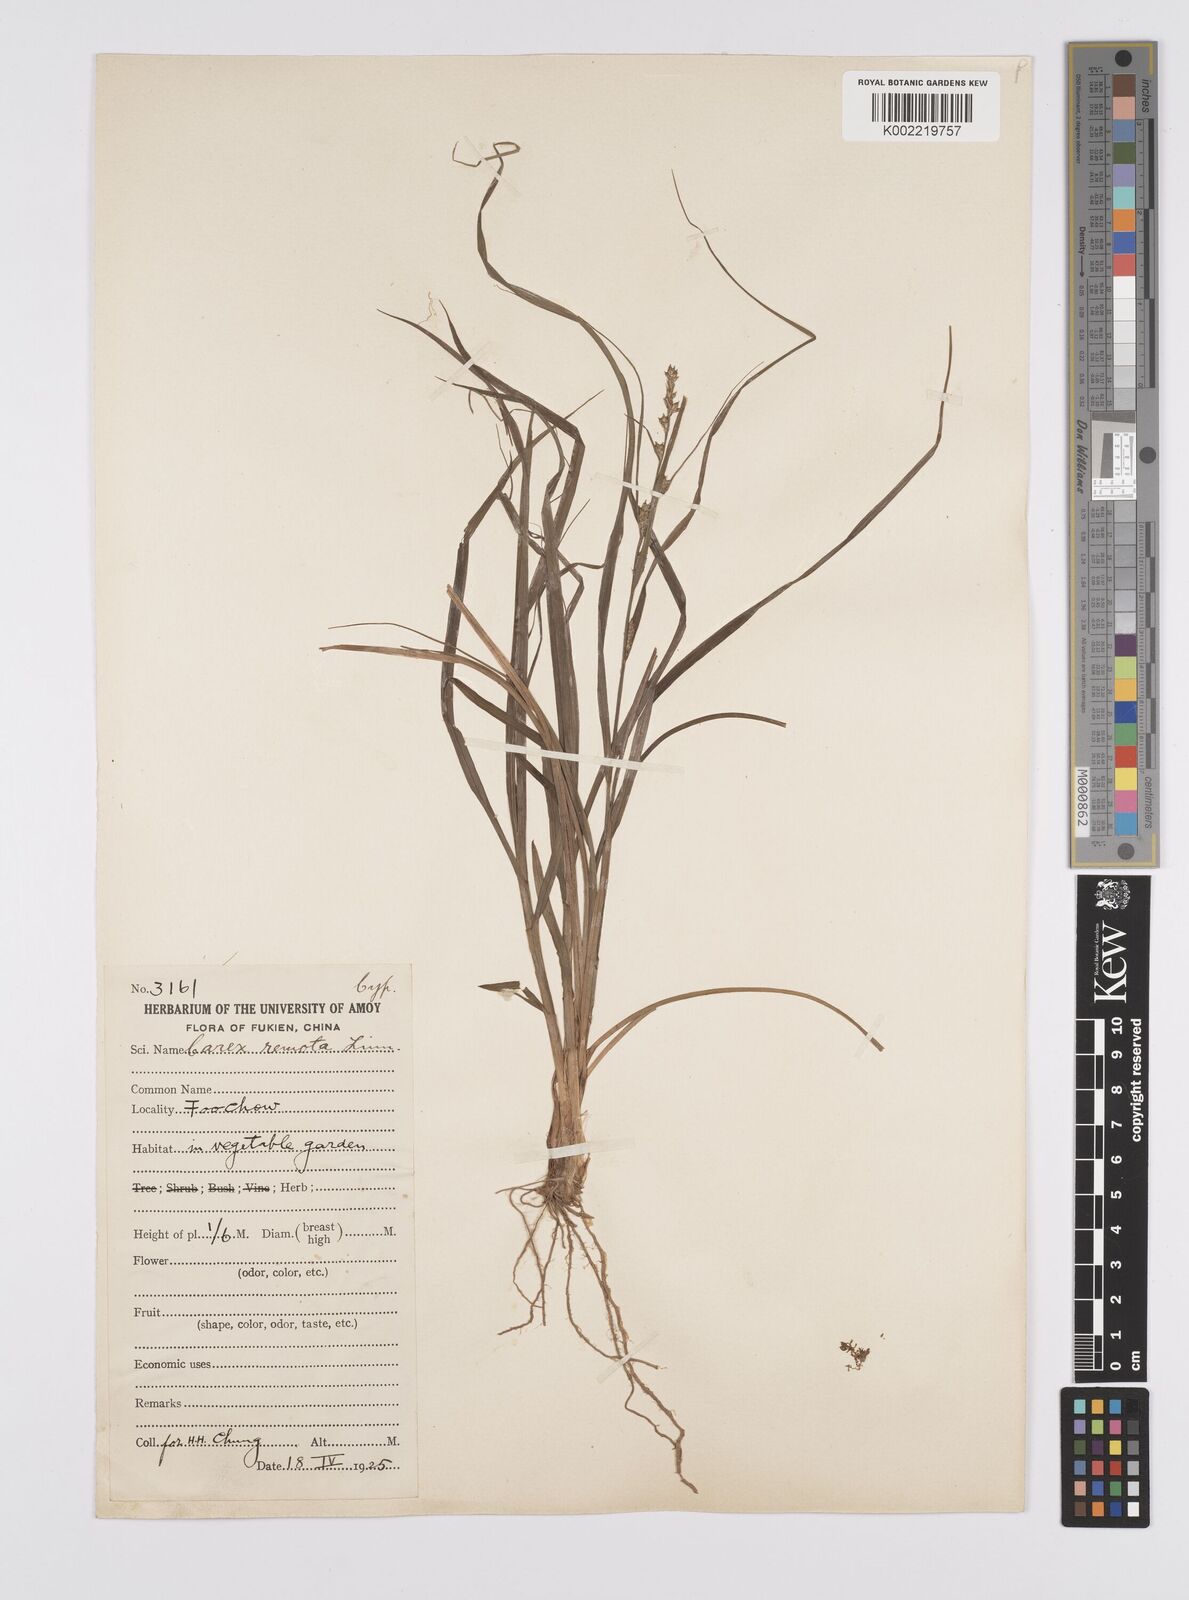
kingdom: Plantae
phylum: Tracheophyta
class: Liliopsida
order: Poales
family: Cyperaceae
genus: Carex
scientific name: Carex remota
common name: Remote sedge
